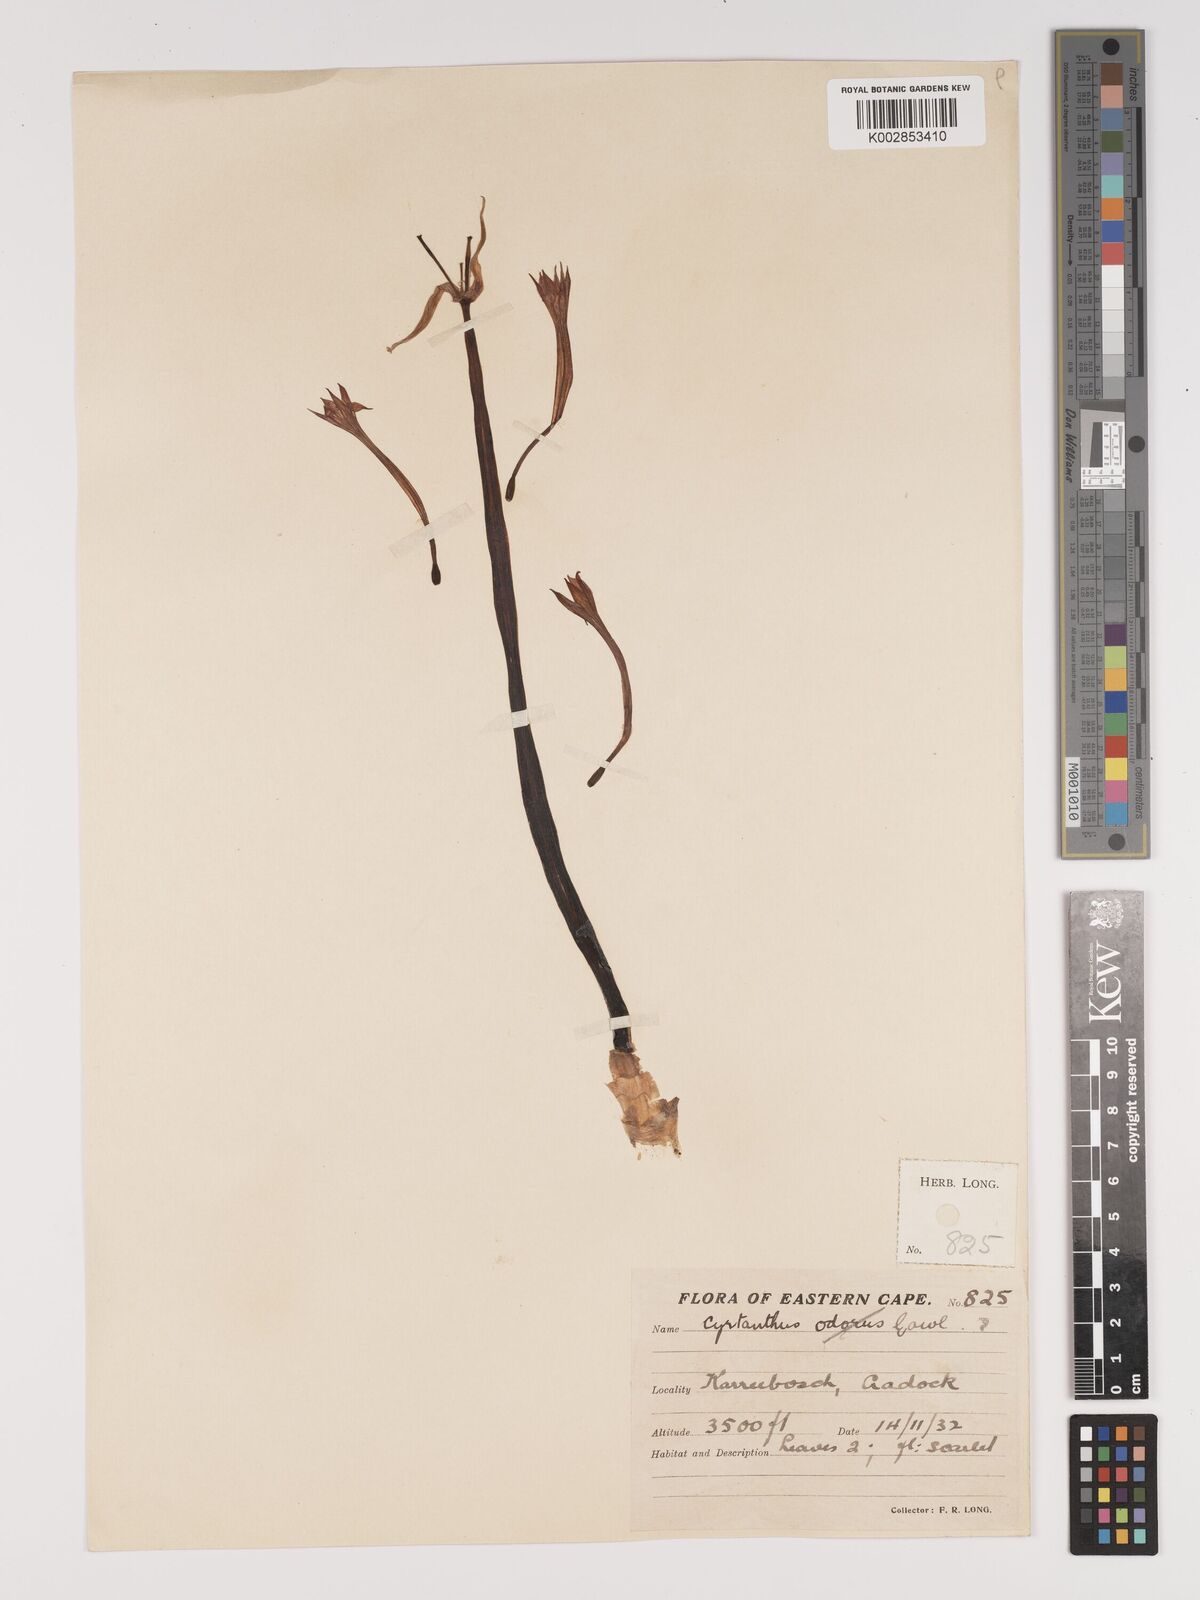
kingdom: Plantae
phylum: Tracheophyta
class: Liliopsida
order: Asparagales
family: Amaryllidaceae
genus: Cyrtanthus
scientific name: Cyrtanthus contractus
